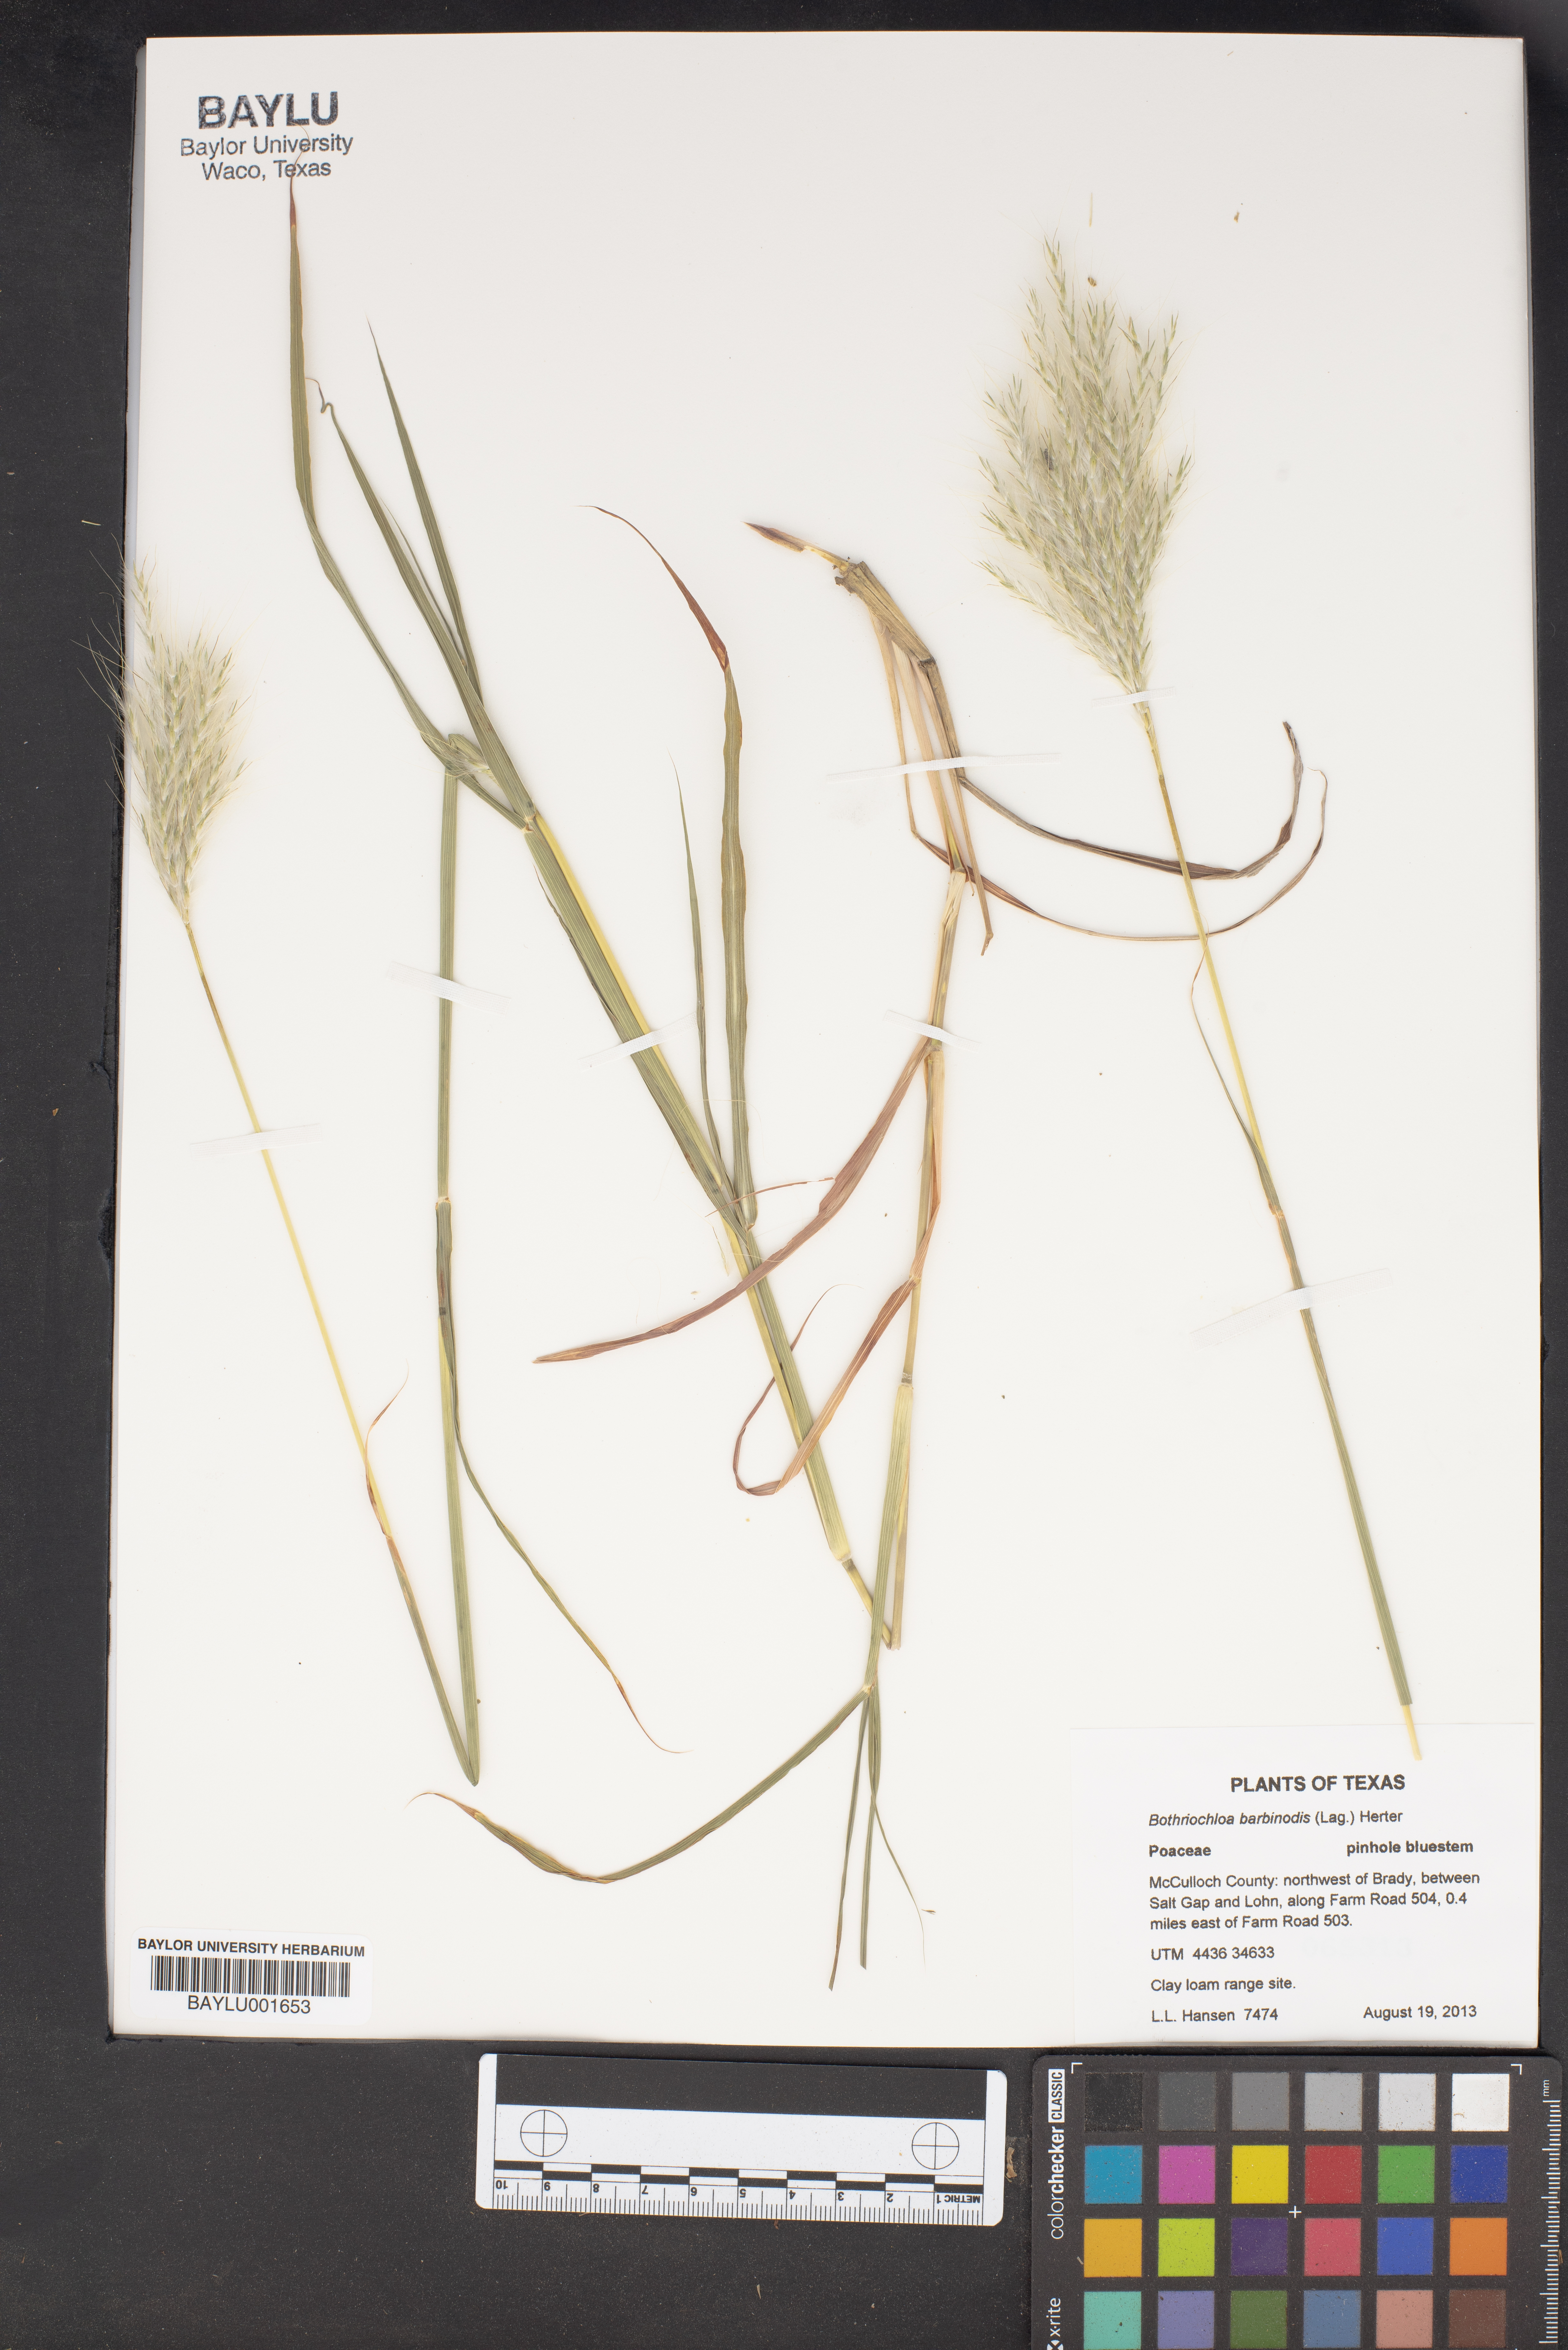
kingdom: Plantae
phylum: Tracheophyta
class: Liliopsida
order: Poales
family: Poaceae
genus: Bothriochloa
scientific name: Bothriochloa barbinodis
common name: Cane bluestem
